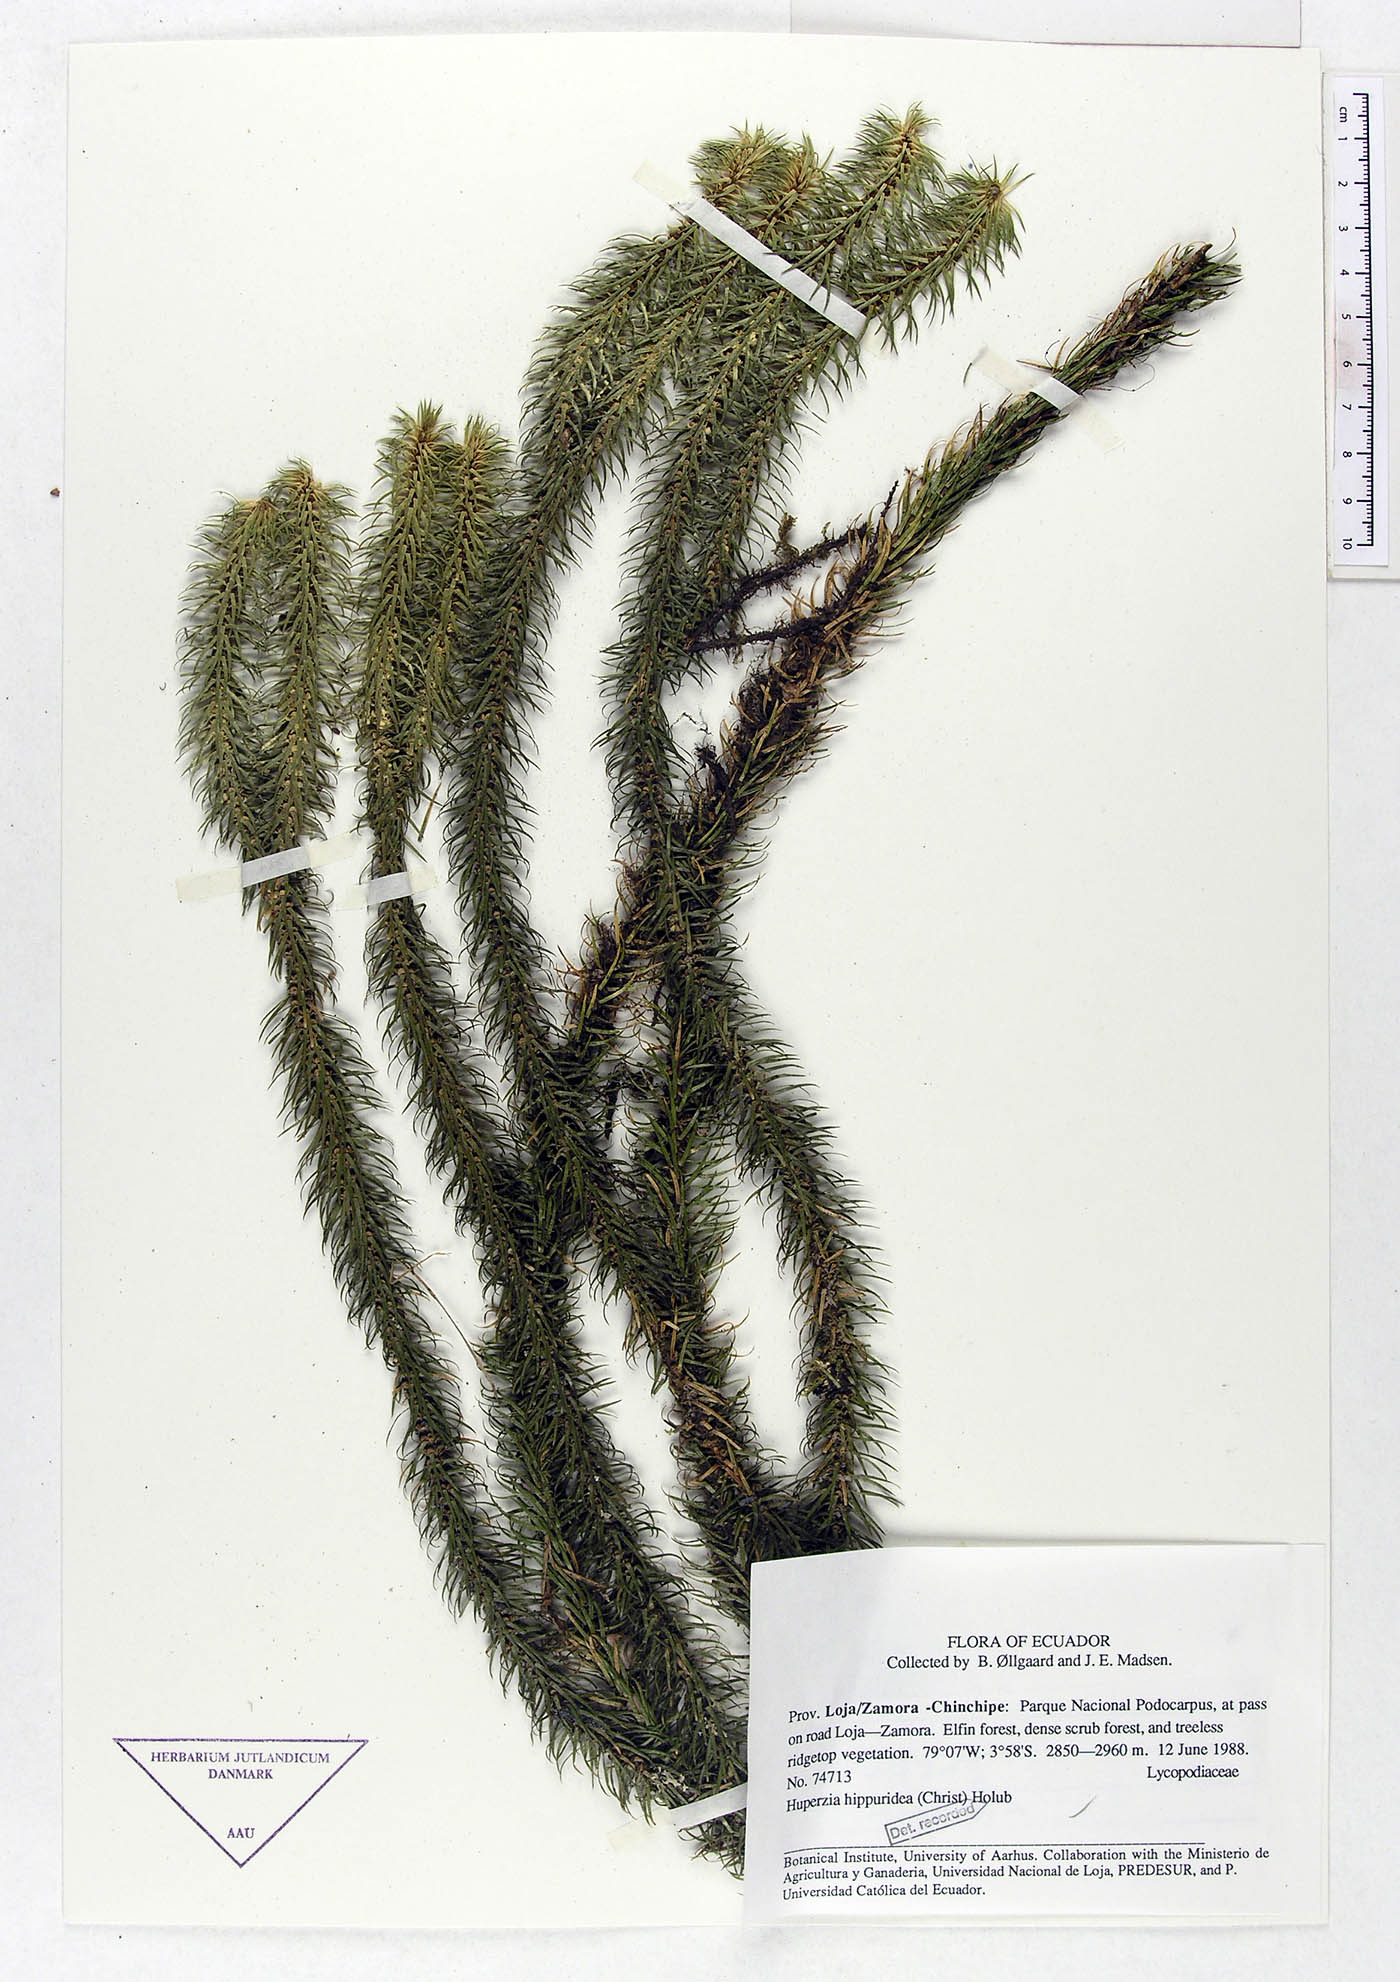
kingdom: Plantae
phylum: Tracheophyta
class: Lycopodiopsida
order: Lycopodiales
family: Lycopodiaceae
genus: Phlegmariurus
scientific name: Phlegmariurus hippurideus
